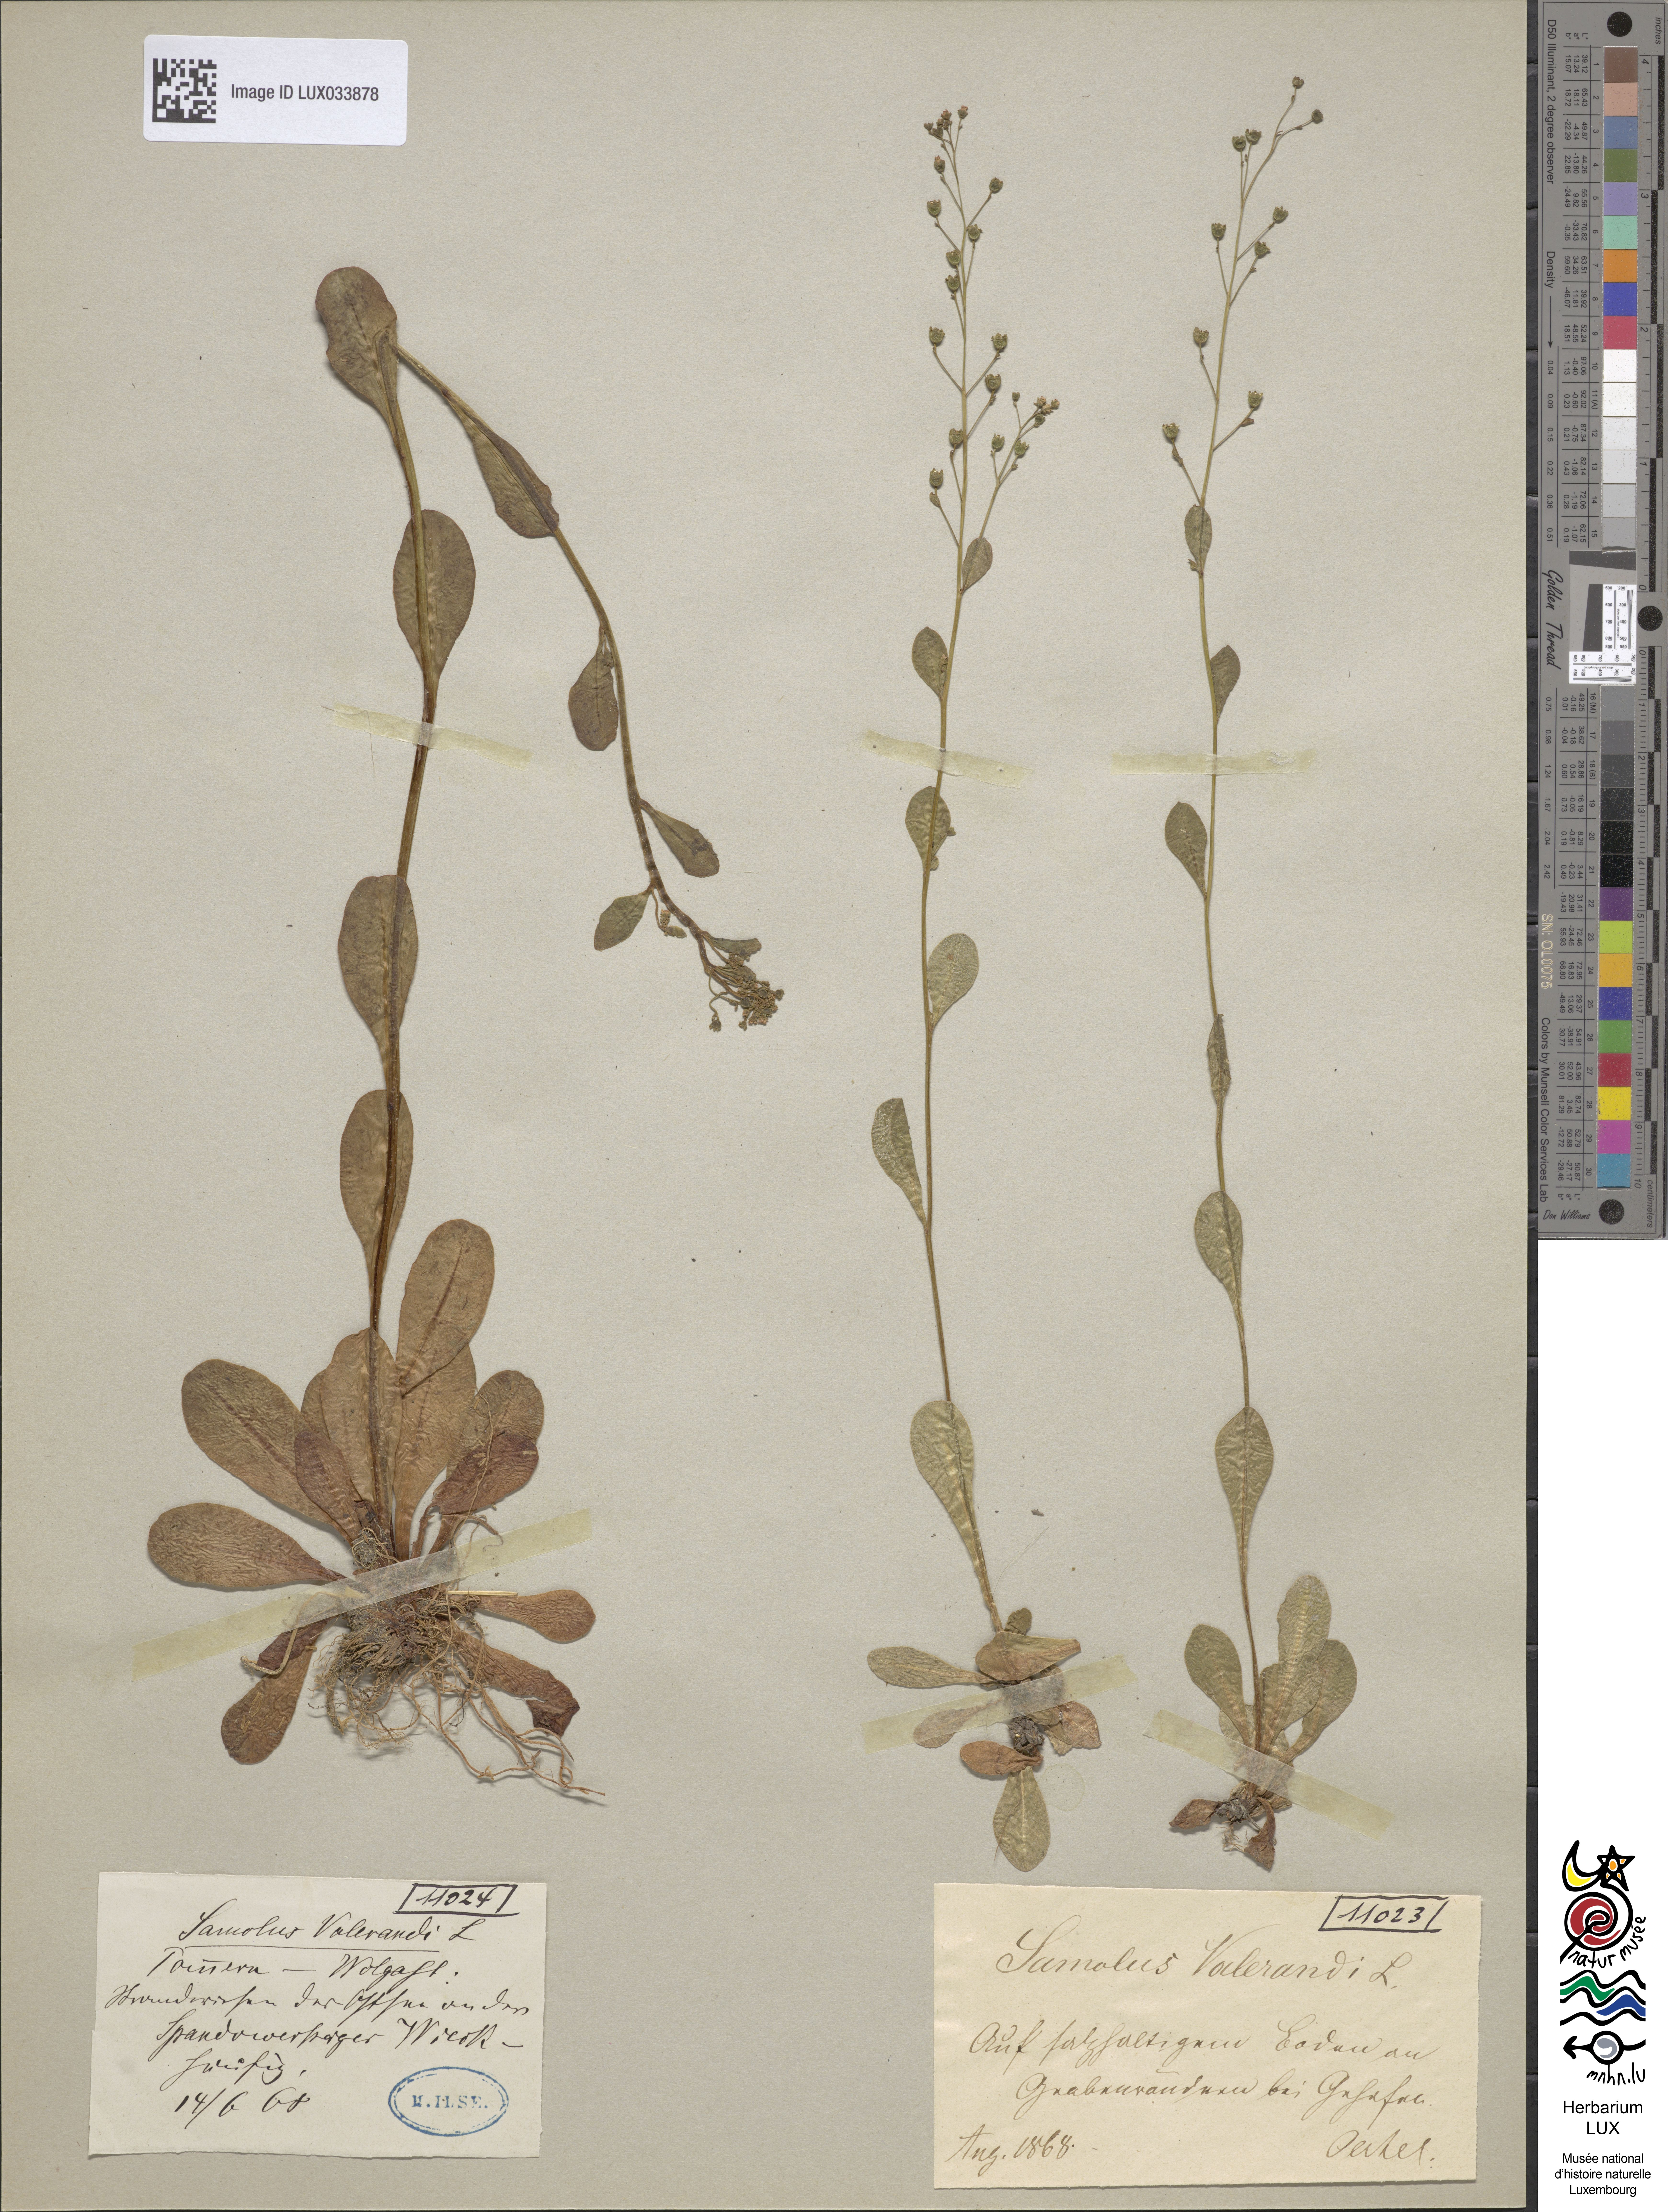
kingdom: Plantae
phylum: Tracheophyta
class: Magnoliopsida
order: Ericales
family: Primulaceae
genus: Samolus
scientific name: Samolus valerandi
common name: Brookweed
